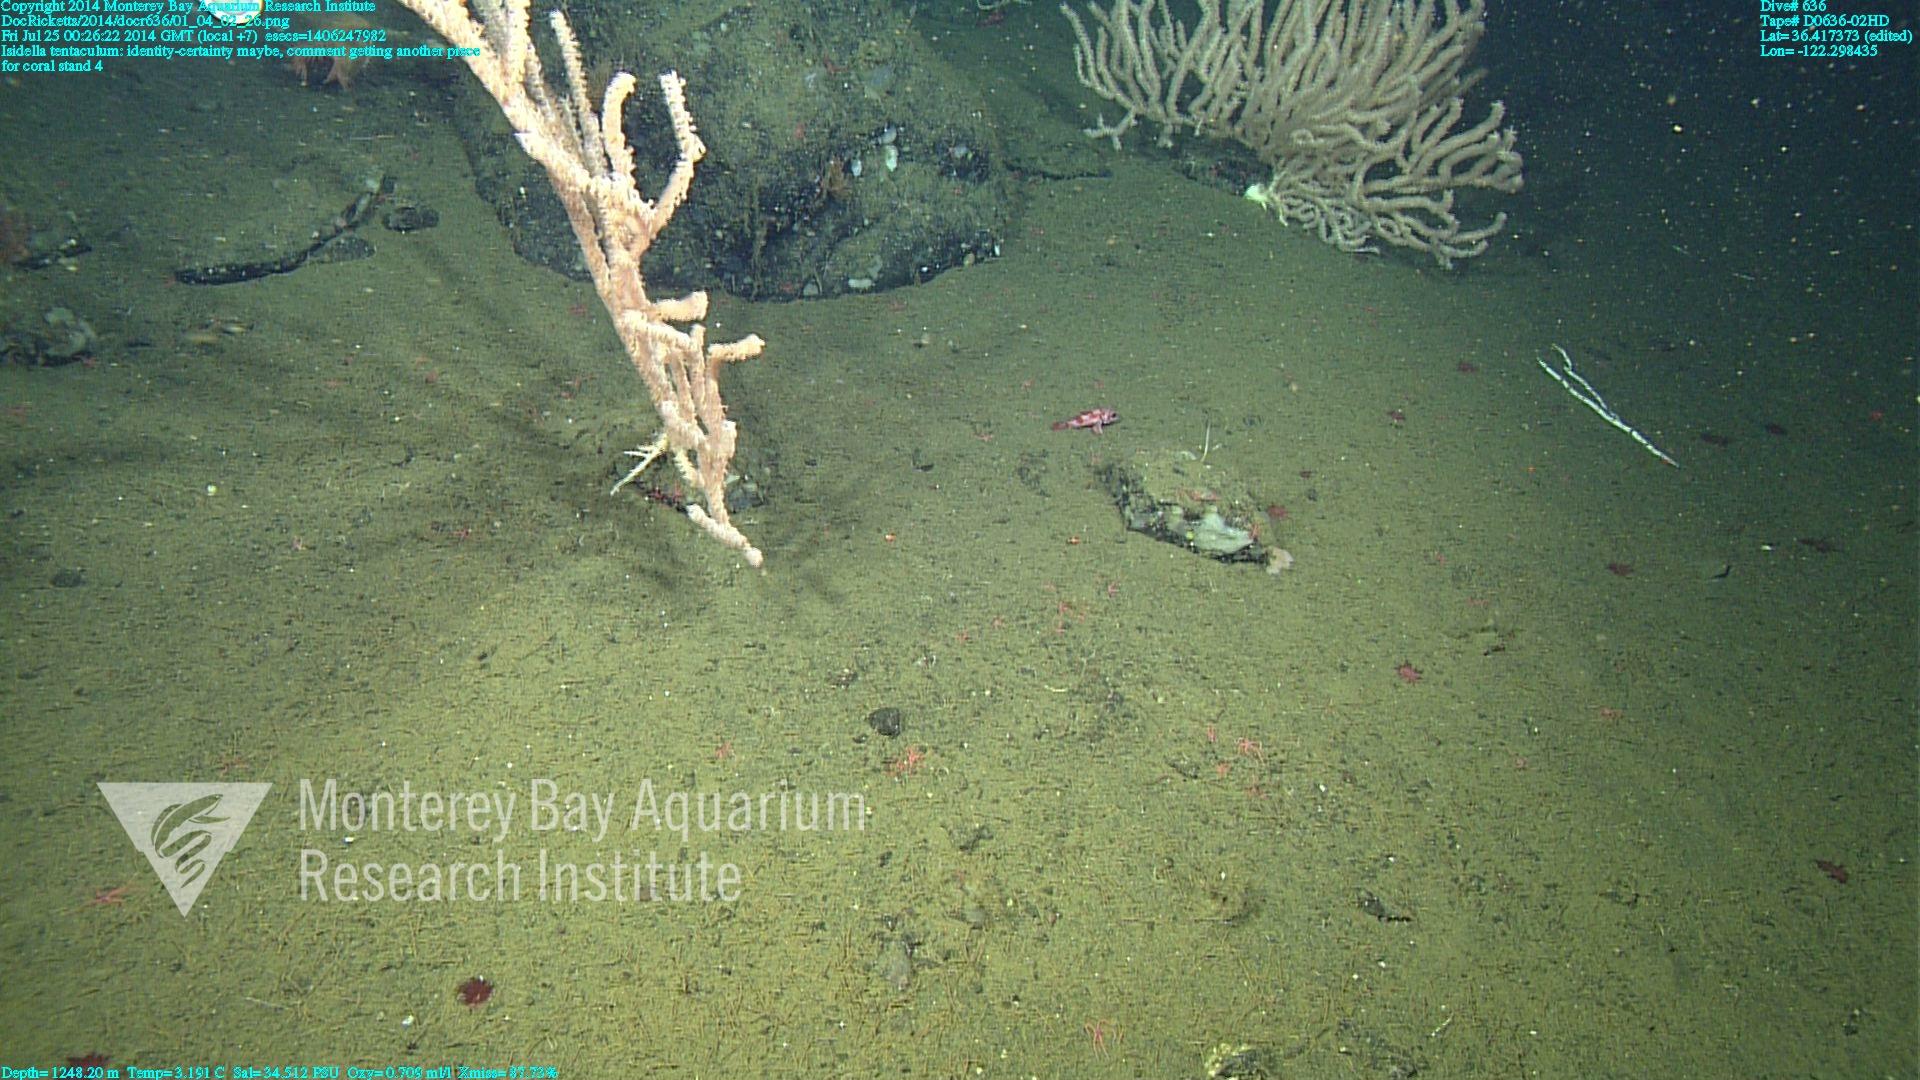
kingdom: Animalia
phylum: Cnidaria
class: Anthozoa
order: Scleralcyonacea
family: Keratoisididae
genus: Isidella
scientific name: Isidella tentaculum
